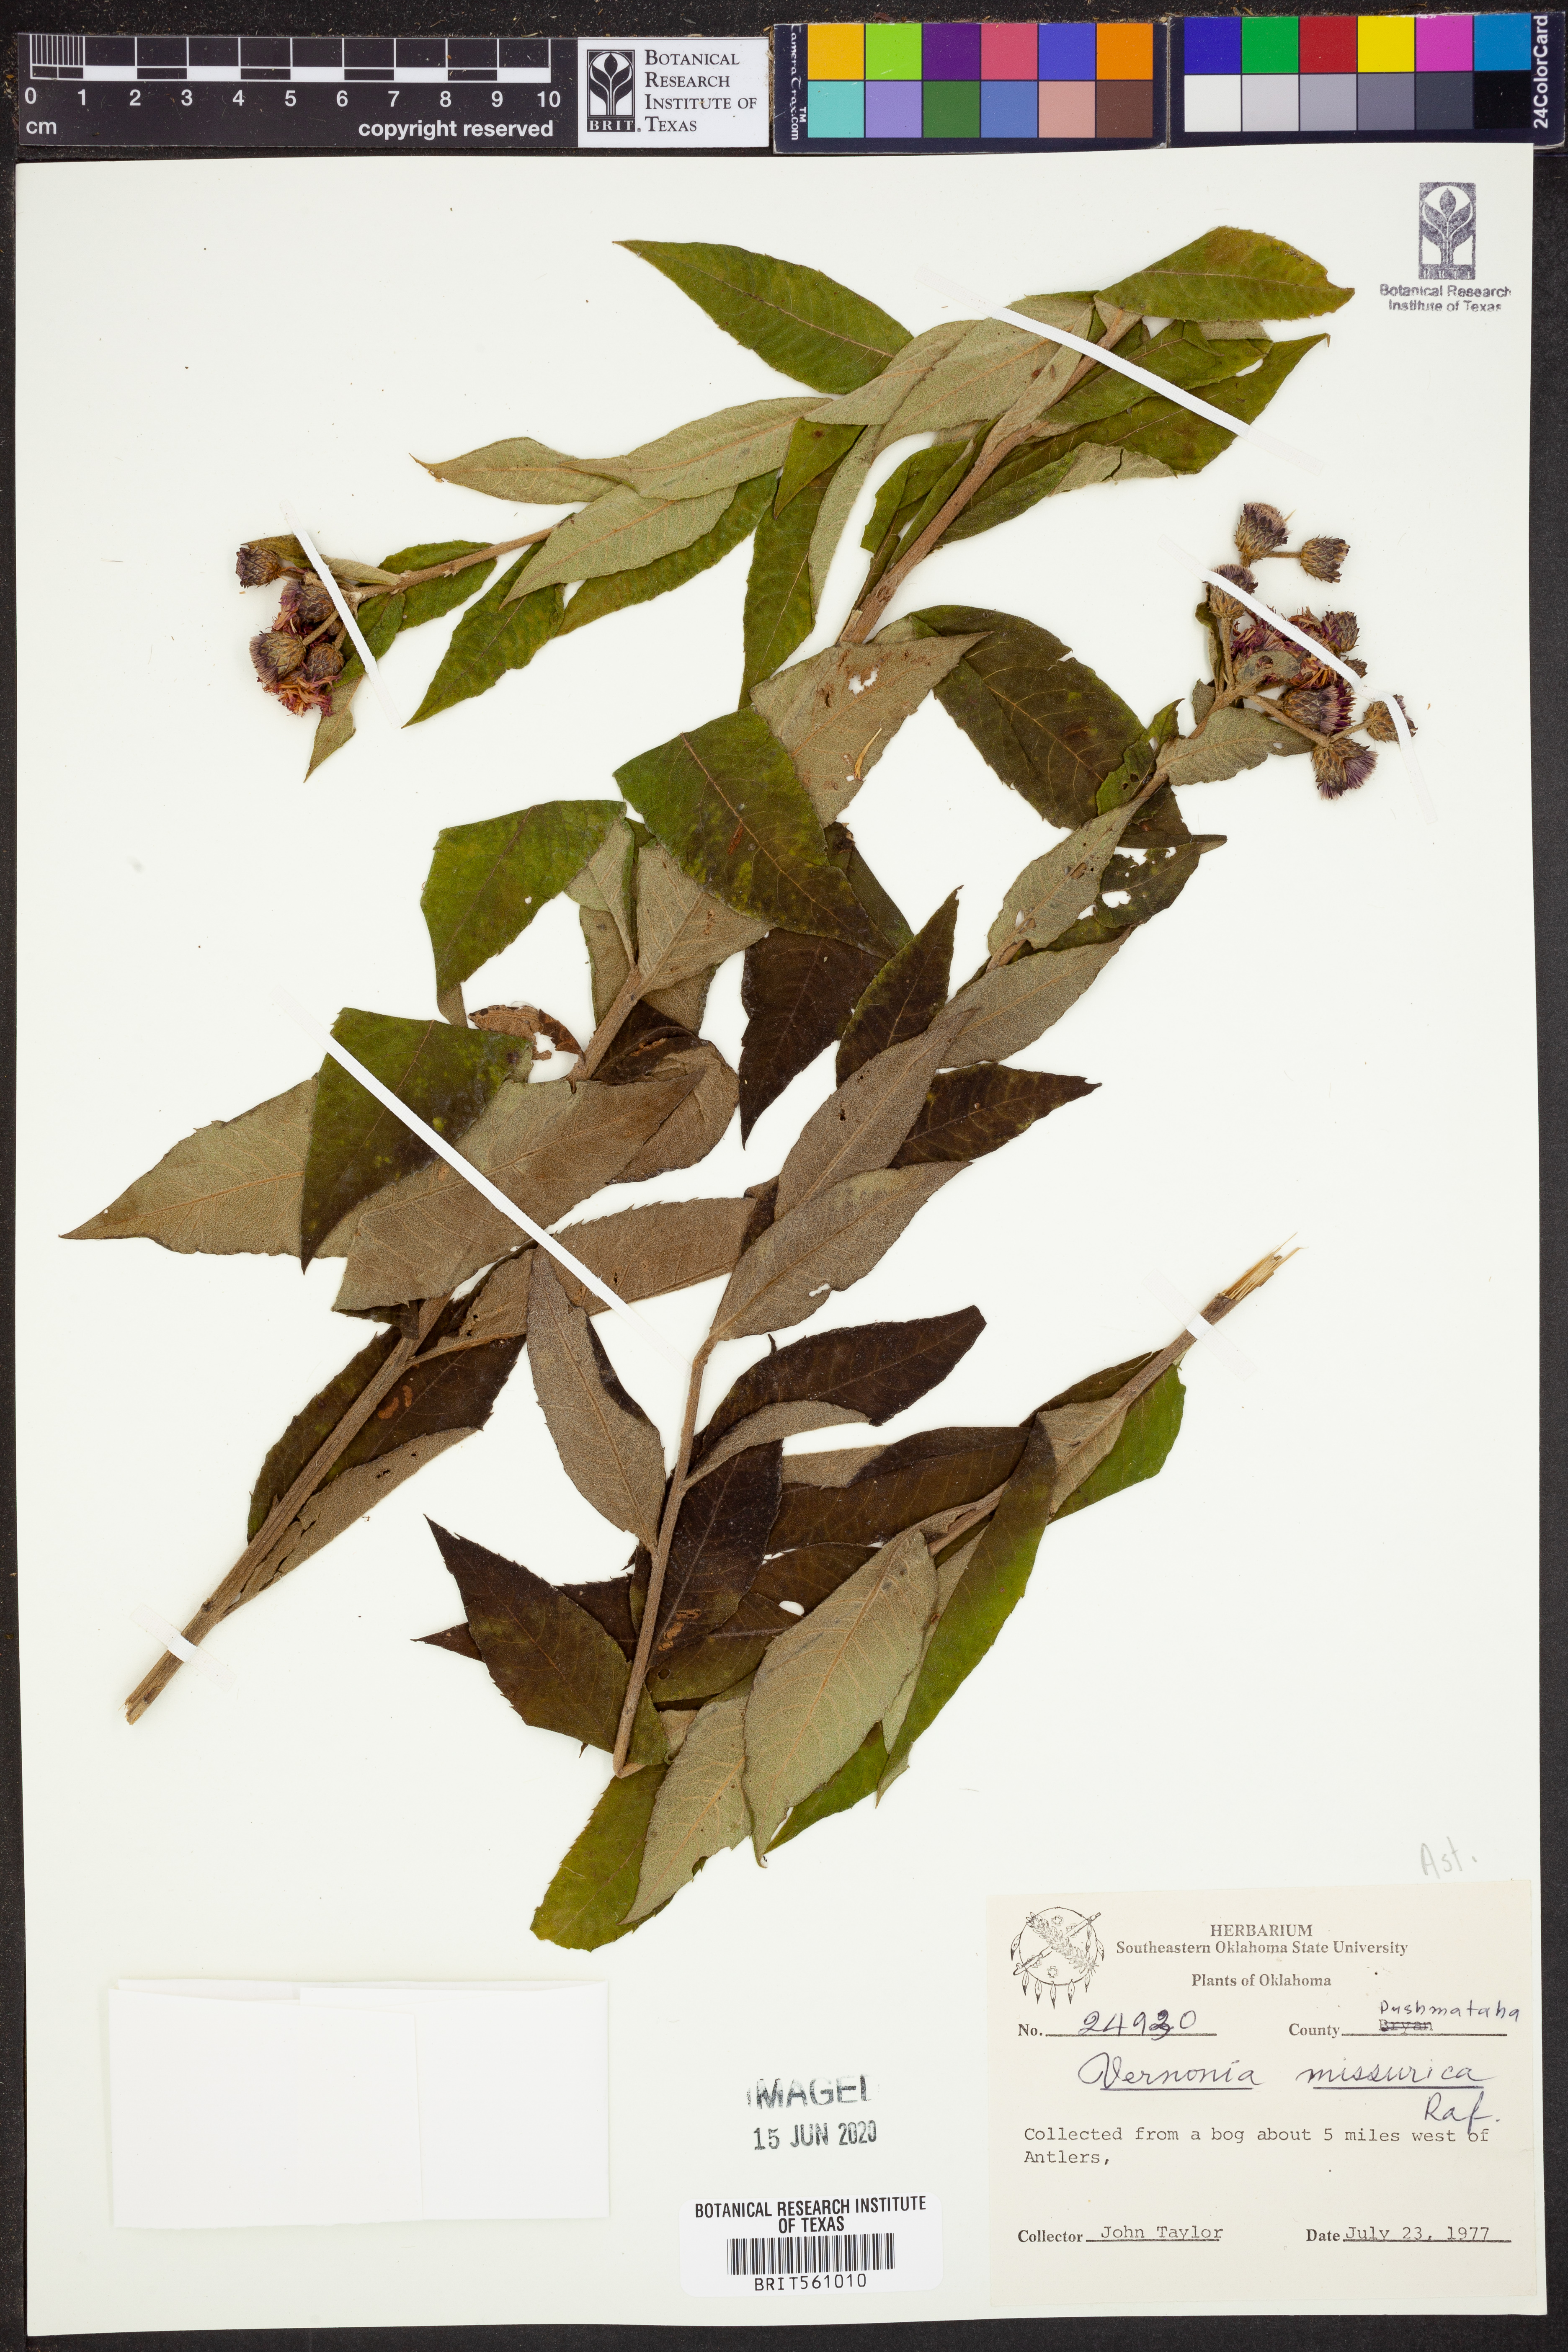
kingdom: Plantae
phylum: Tracheophyta
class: Magnoliopsida
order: Asterales
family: Asteraceae
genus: Vernonia
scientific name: Vernonia missurica
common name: Missouri ironweed
